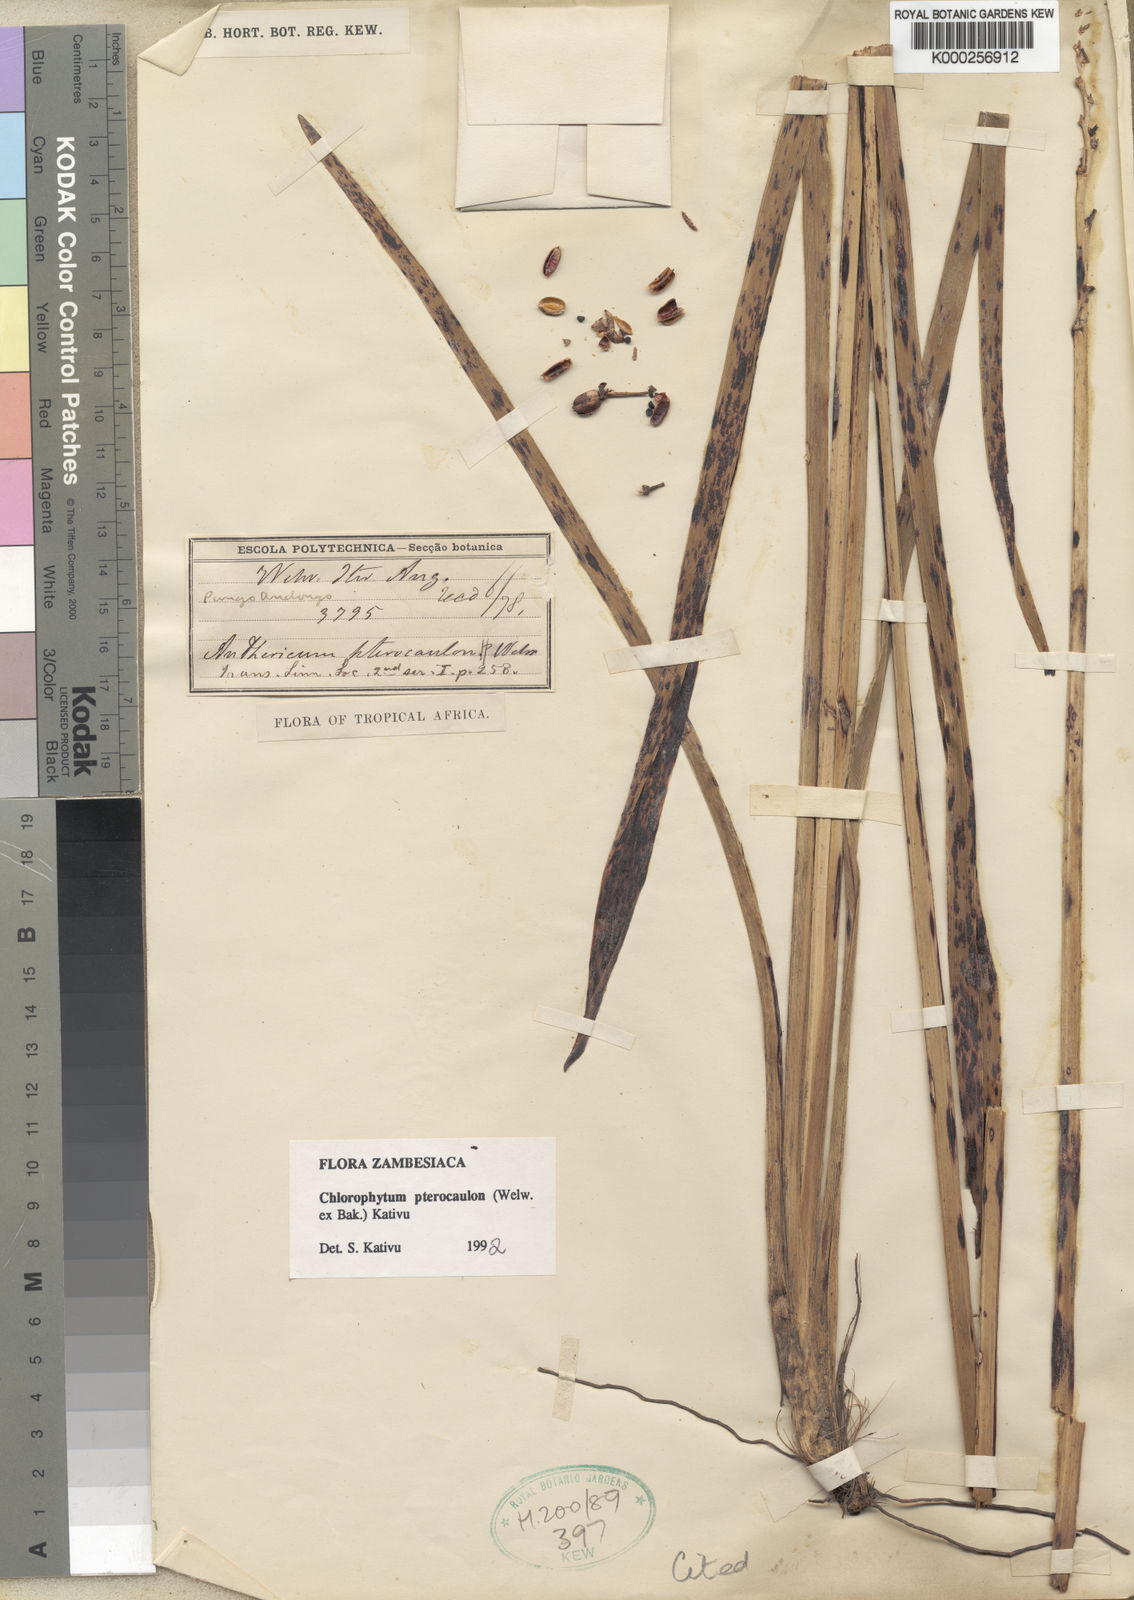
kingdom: Plantae
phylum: Tracheophyta
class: Liliopsida
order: Asparagales
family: Asparagaceae
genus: Chlorophytum
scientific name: Chlorophytum cameronii
